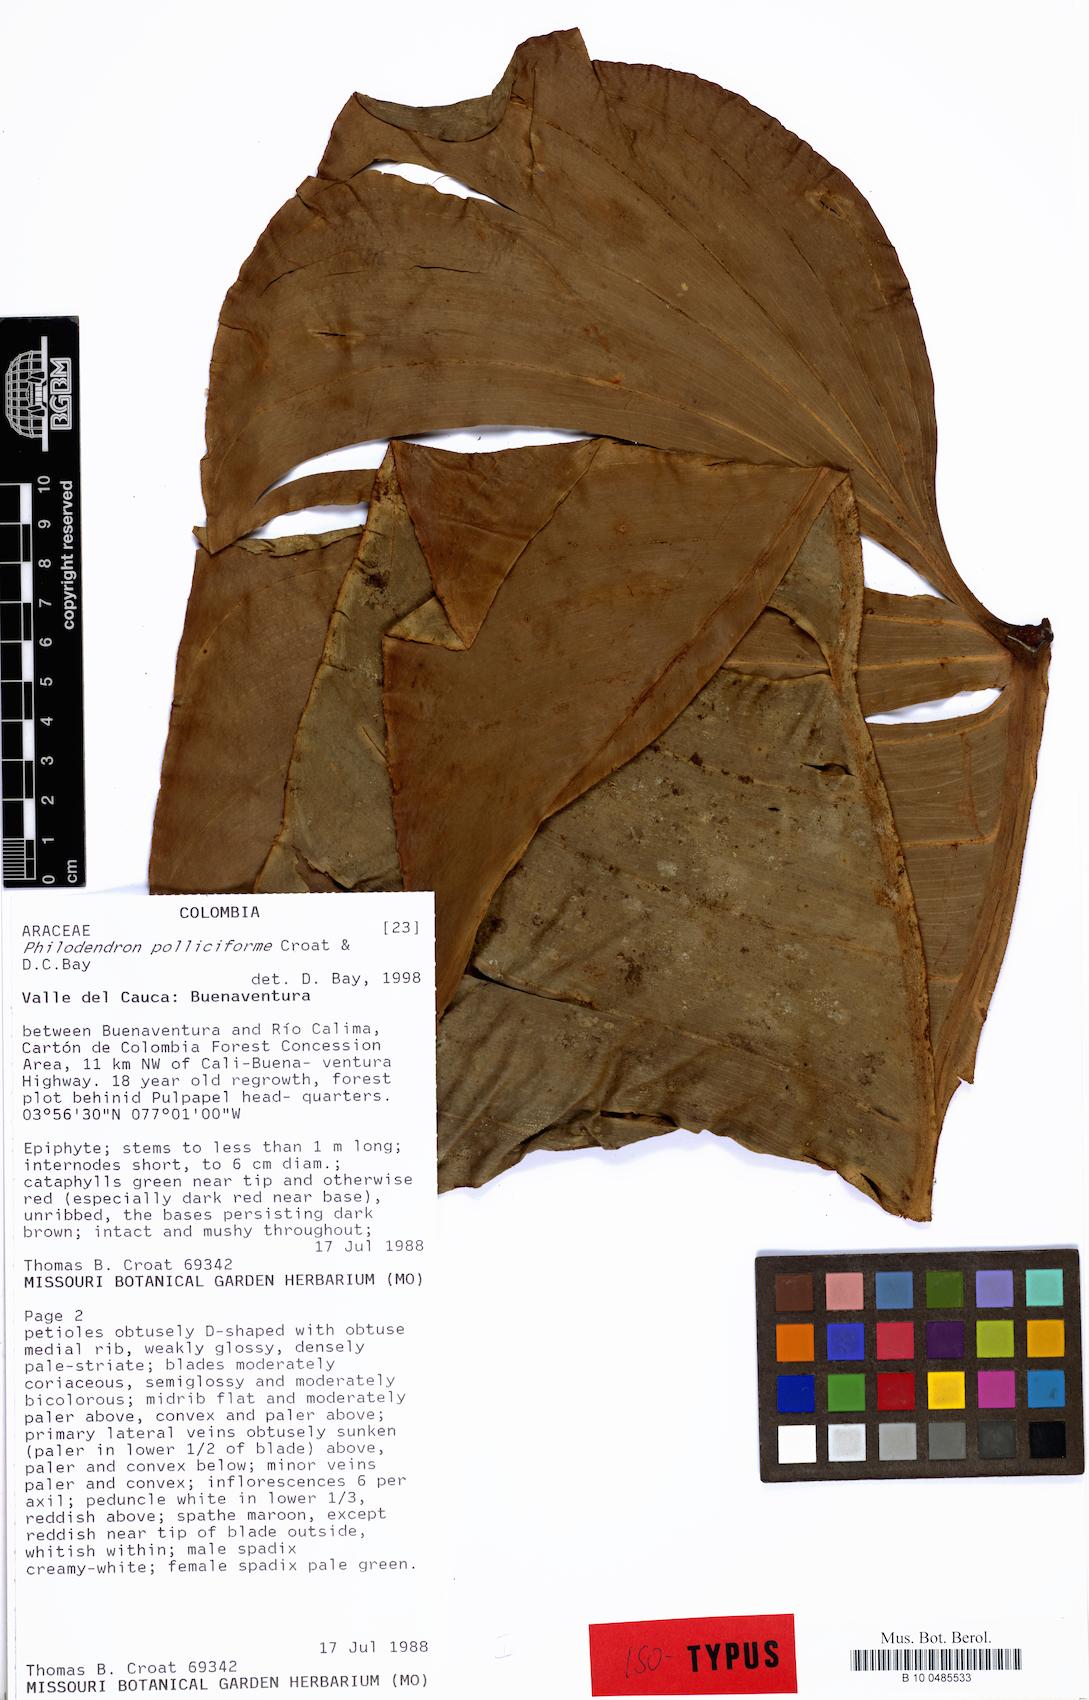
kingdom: Plantae
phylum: Tracheophyta
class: Liliopsida
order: Alismatales
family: Araceae
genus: Philodendron
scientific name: Philodendron polliciforme
